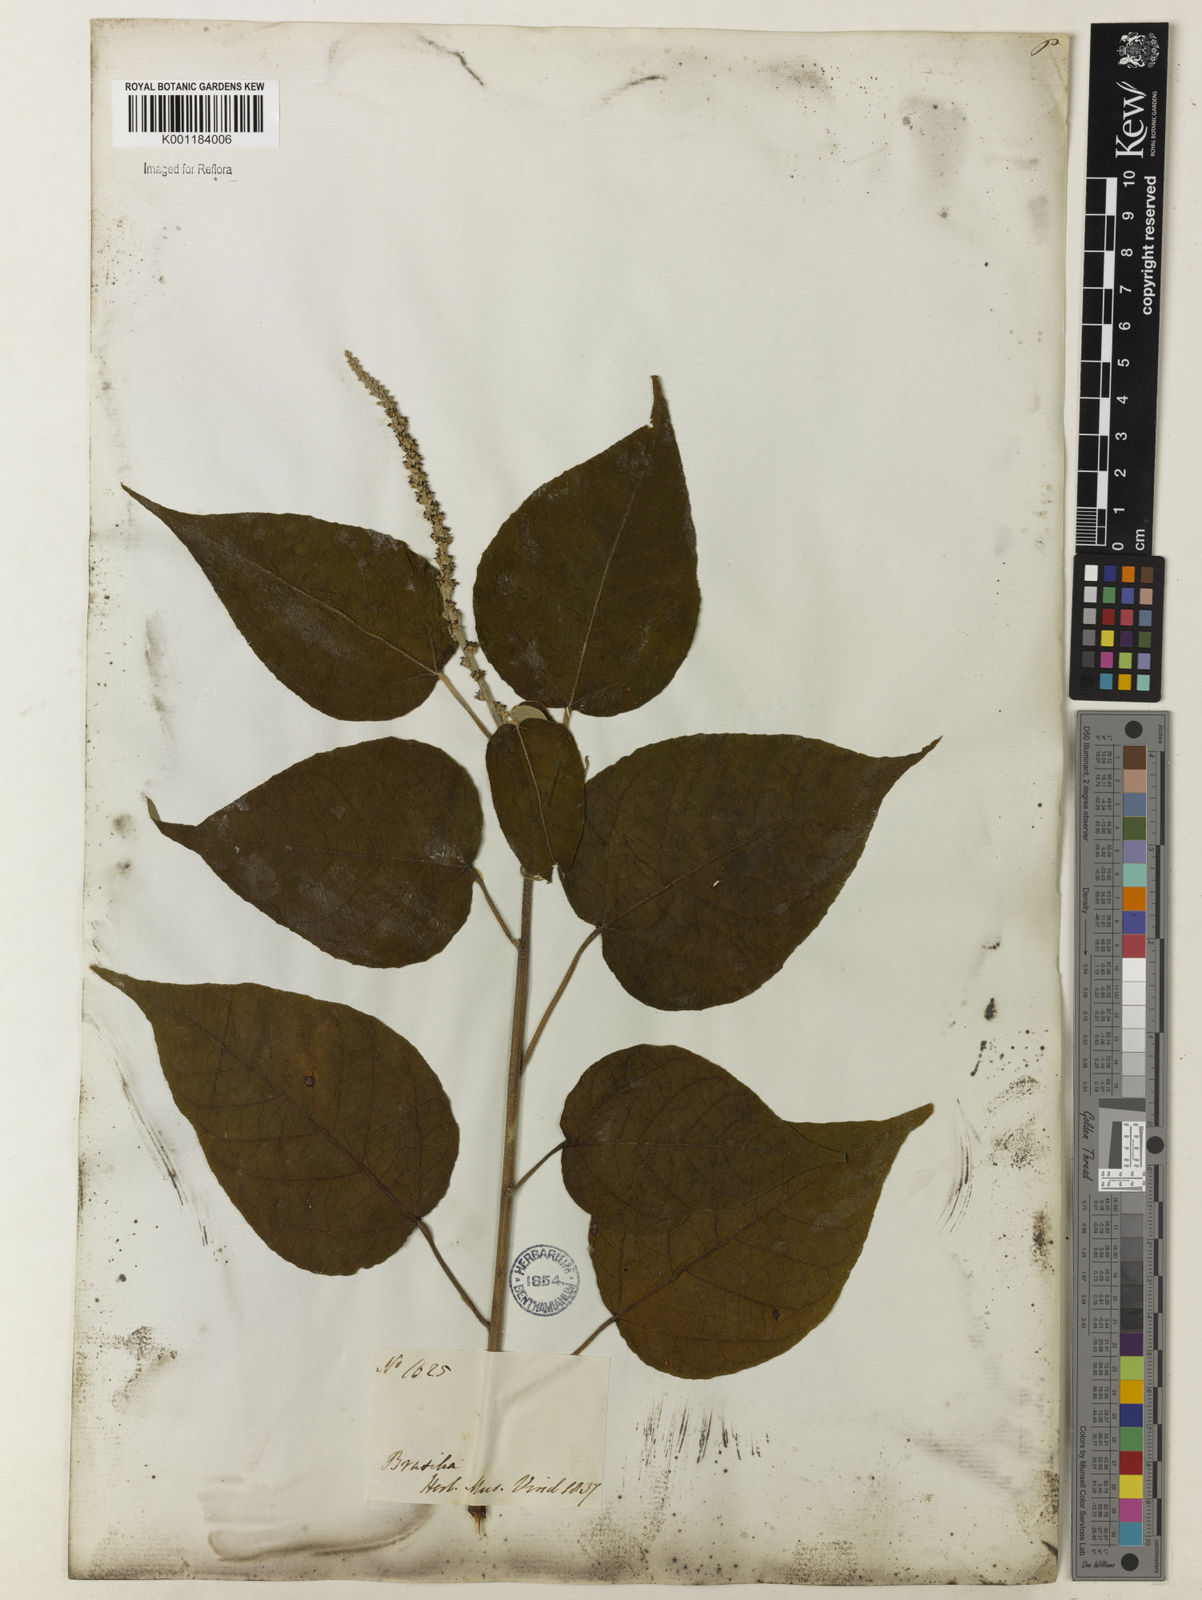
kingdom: Plantae
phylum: Tracheophyta
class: Magnoliopsida
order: Malpighiales
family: Euphorbiaceae
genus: Croton
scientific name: Croton gracilipes
